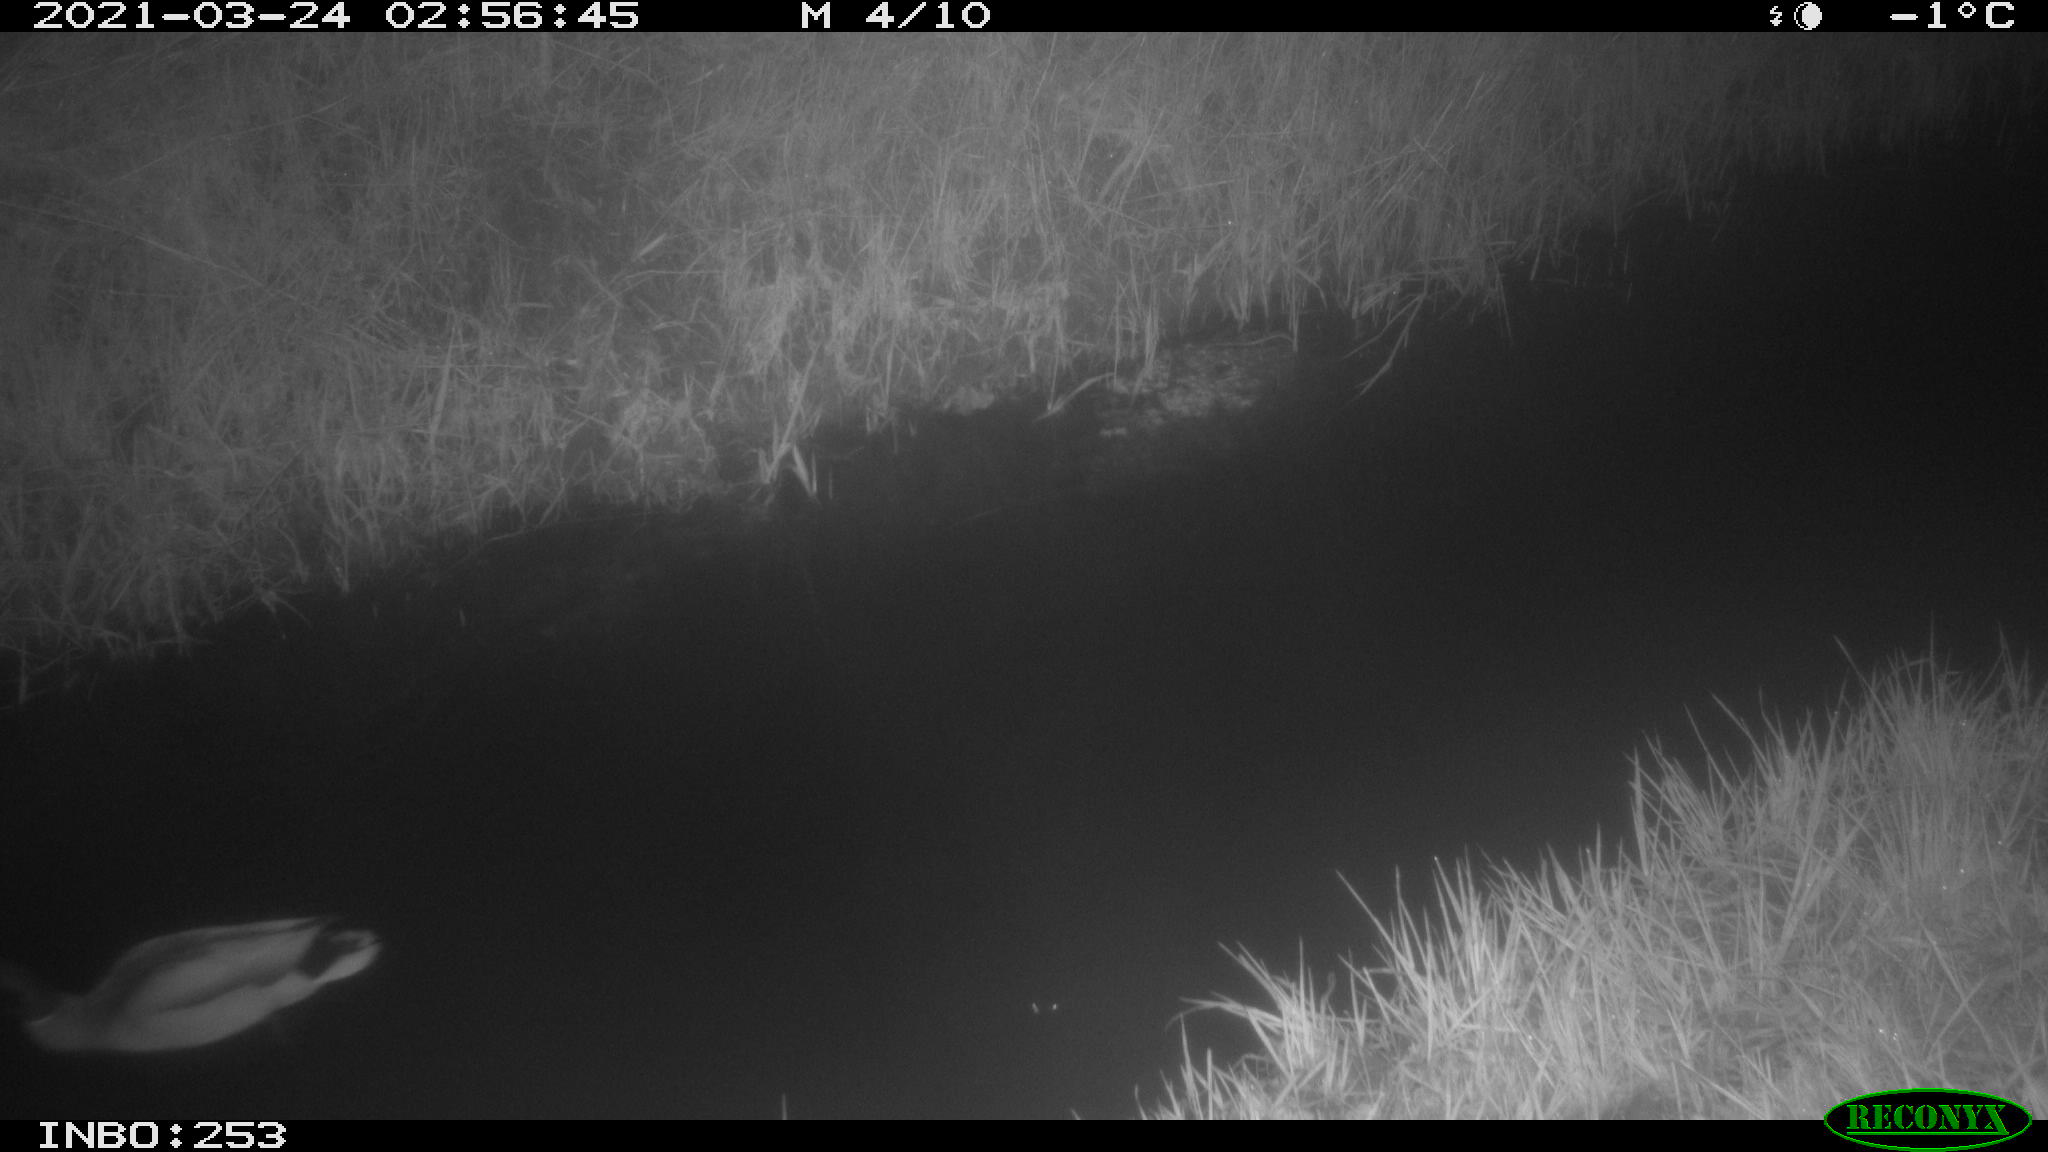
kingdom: Animalia
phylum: Chordata
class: Aves
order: Anseriformes
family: Anatidae
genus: Anas
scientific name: Anas platyrhynchos
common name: Mallard
